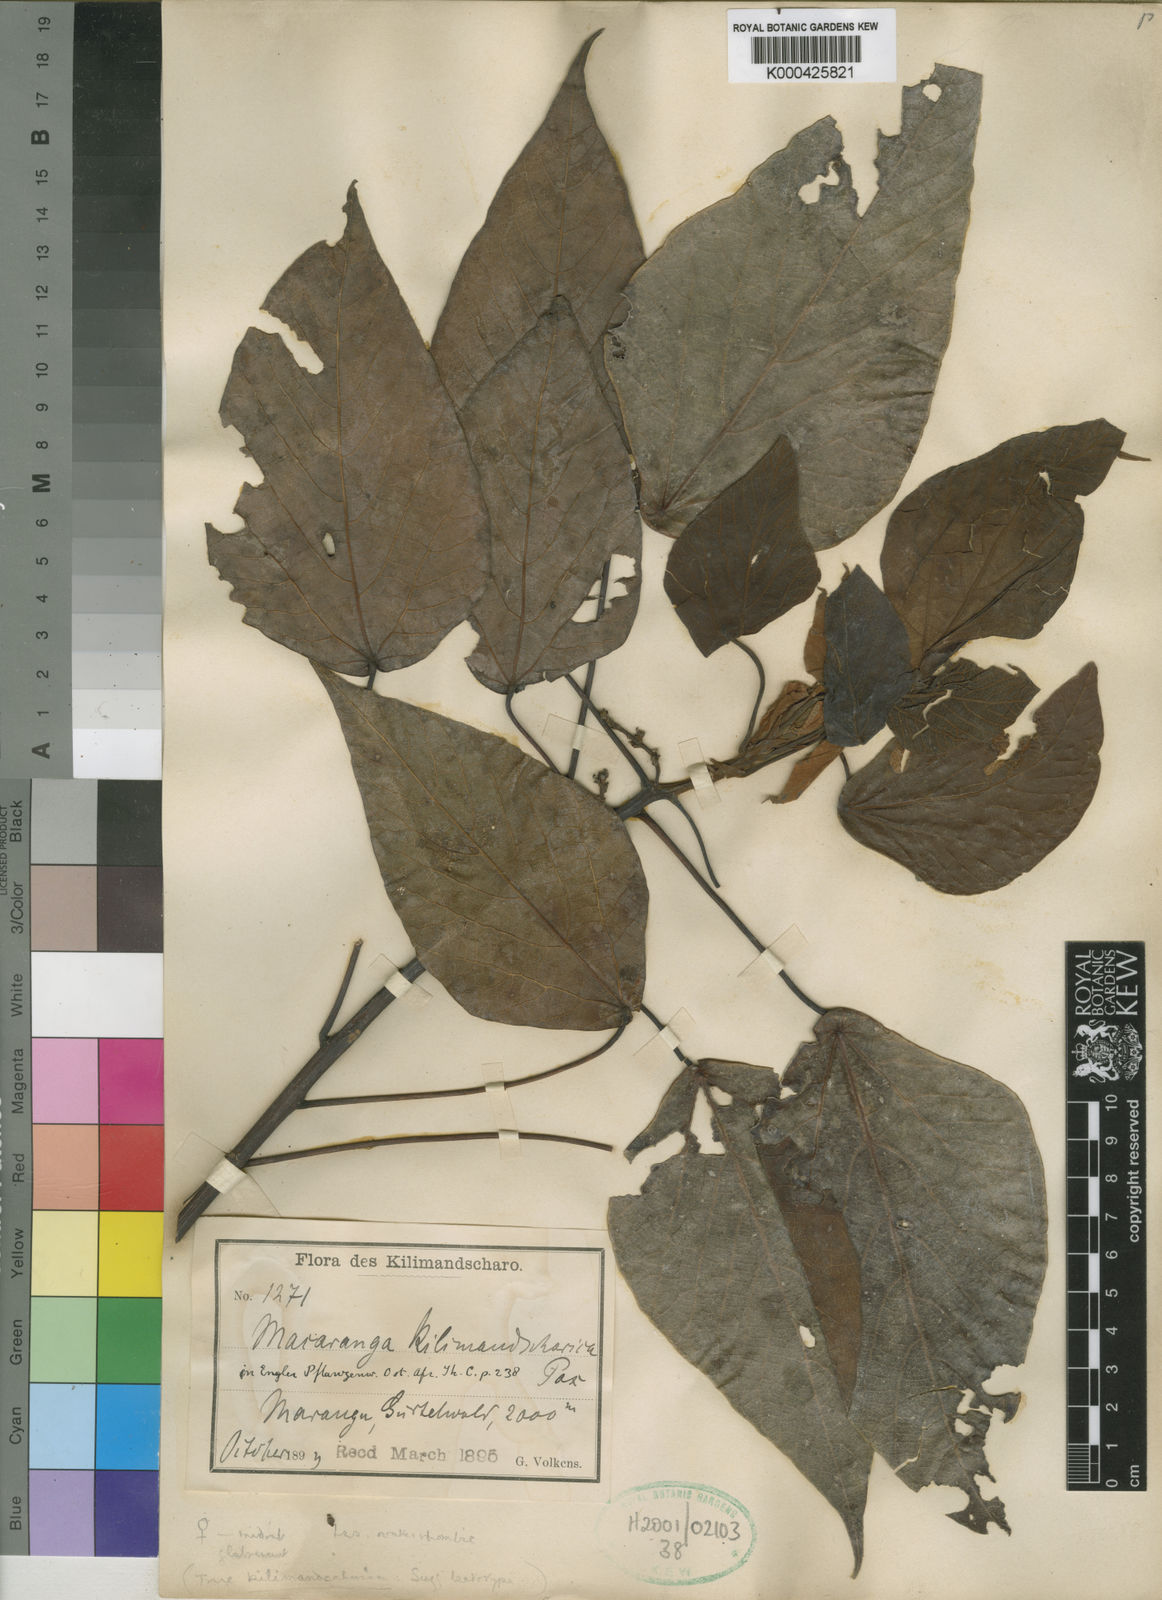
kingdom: Plantae
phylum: Tracheophyta
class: Magnoliopsida
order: Malpighiales
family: Euphorbiaceae
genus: Macaranga
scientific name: Macaranga kilimandscharica
